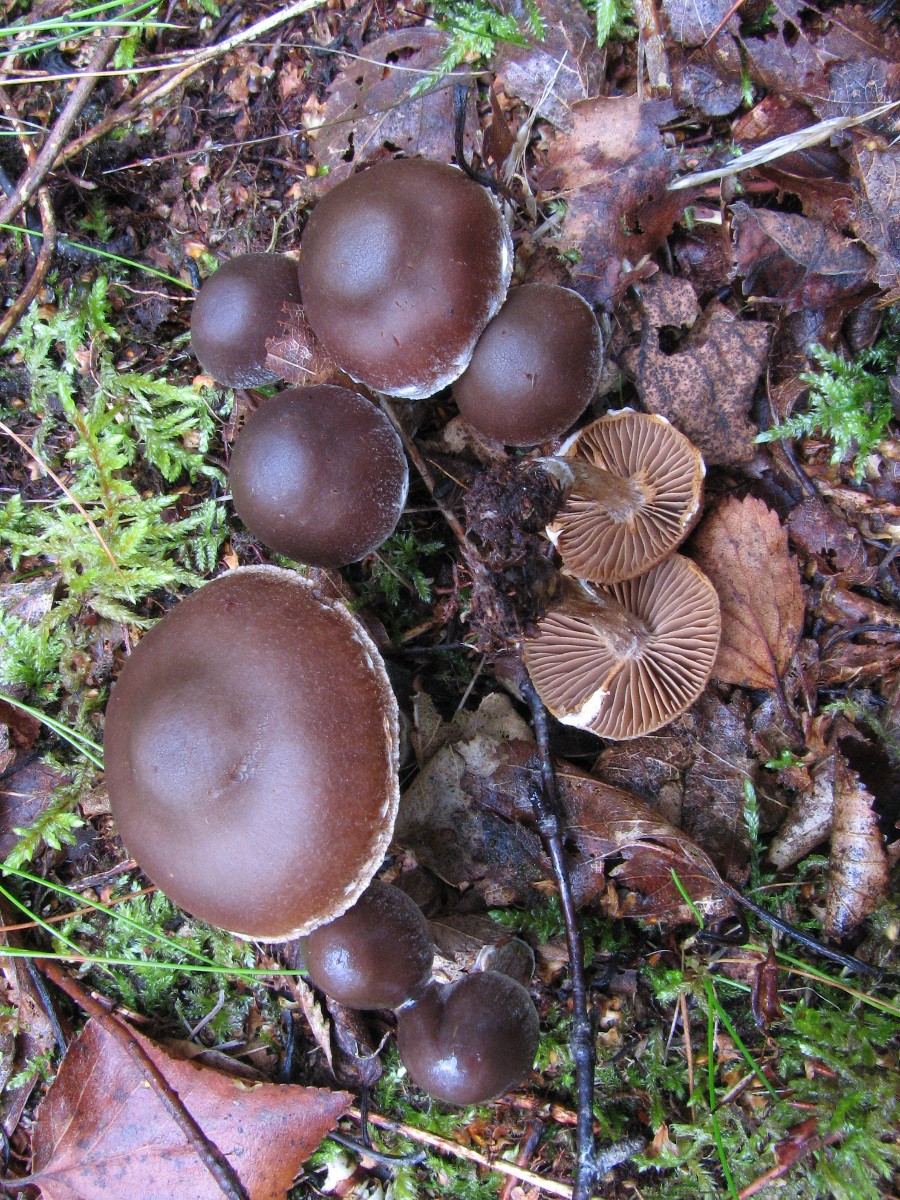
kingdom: Fungi
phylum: Basidiomycota
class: Agaricomycetes
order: Agaricales
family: Cortinariaceae
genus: Cortinarius
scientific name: Cortinarius decipiens
